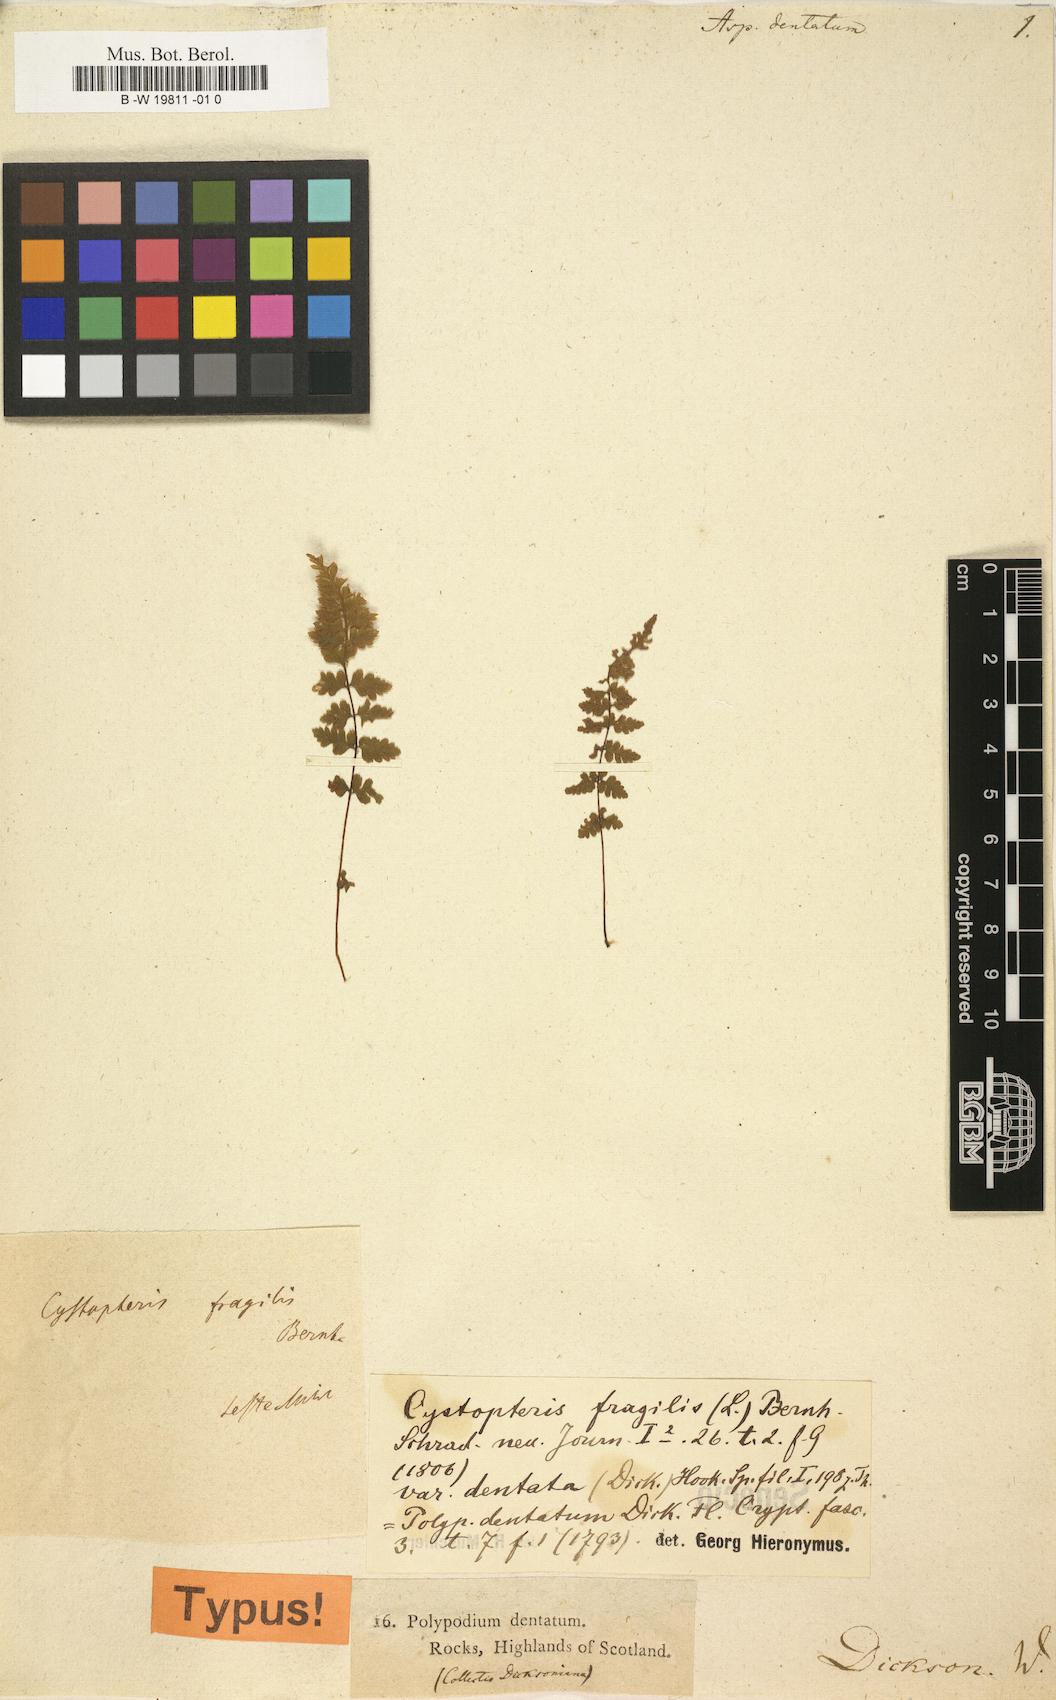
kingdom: Plantae
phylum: Tracheophyta
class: Polypodiopsida
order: Polypodiales
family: Polypodiaceae
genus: Dryopterites
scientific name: Dryopterites Aspidium dentatum
